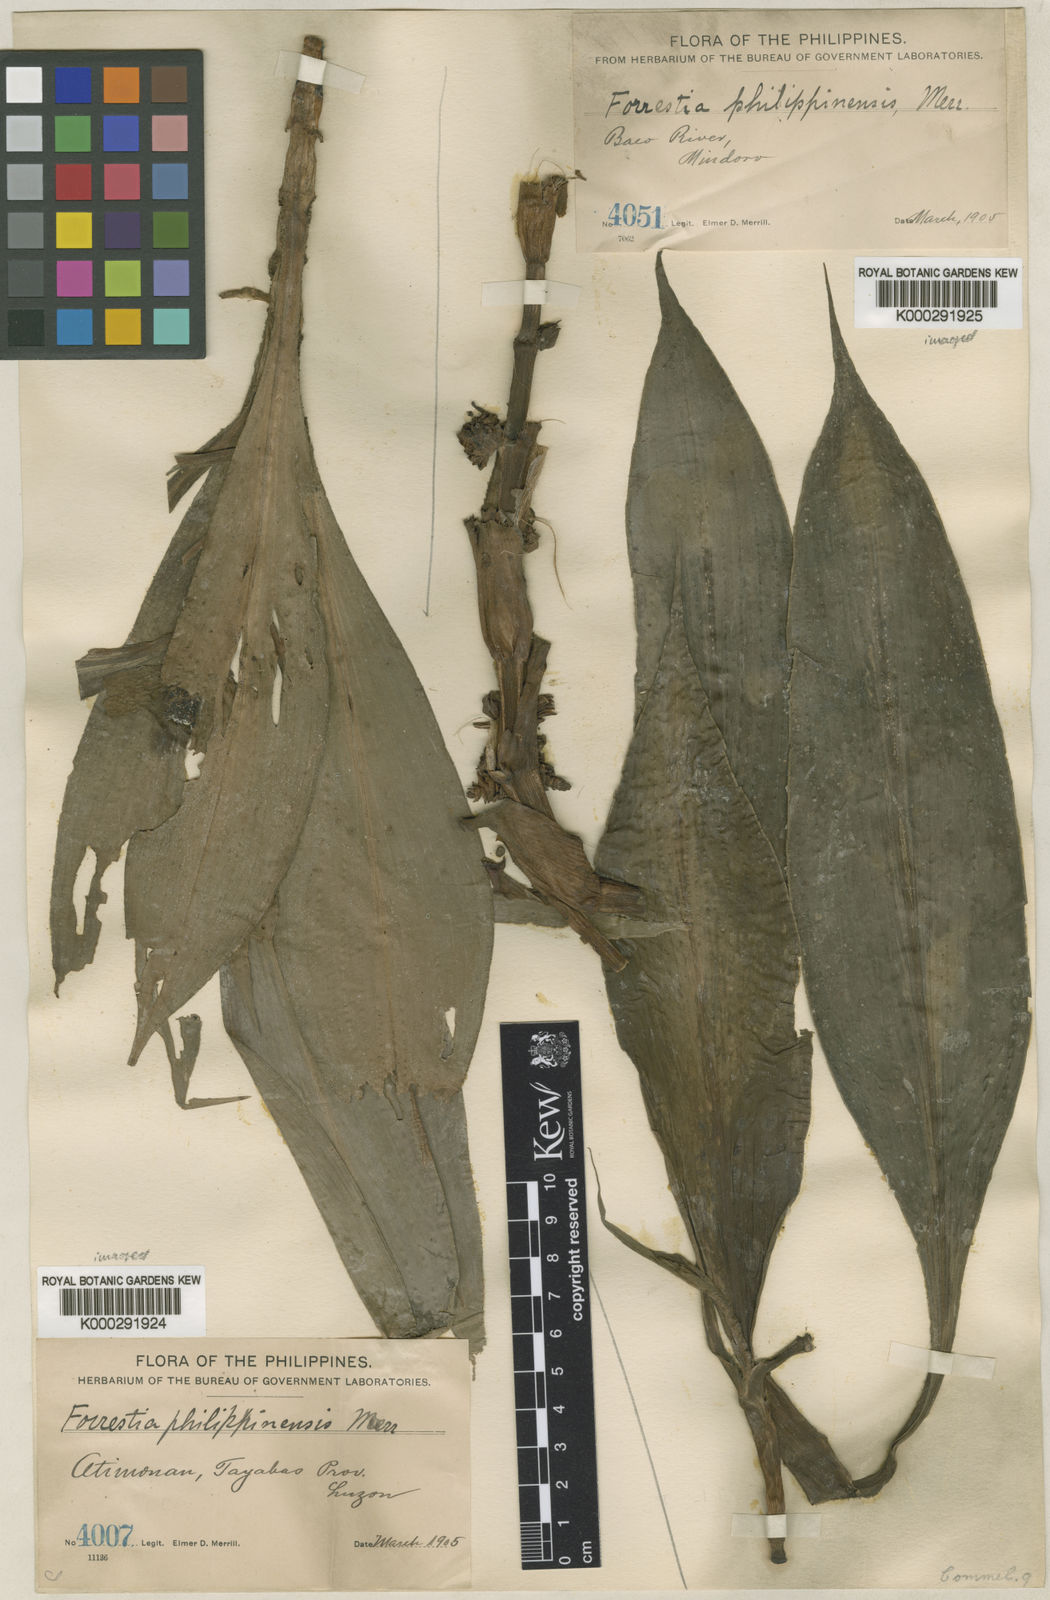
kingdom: Plantae
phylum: Tracheophyta
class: Liliopsida
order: Commelinales
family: Commelinaceae
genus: Amischotolype
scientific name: Amischotolype hispida
